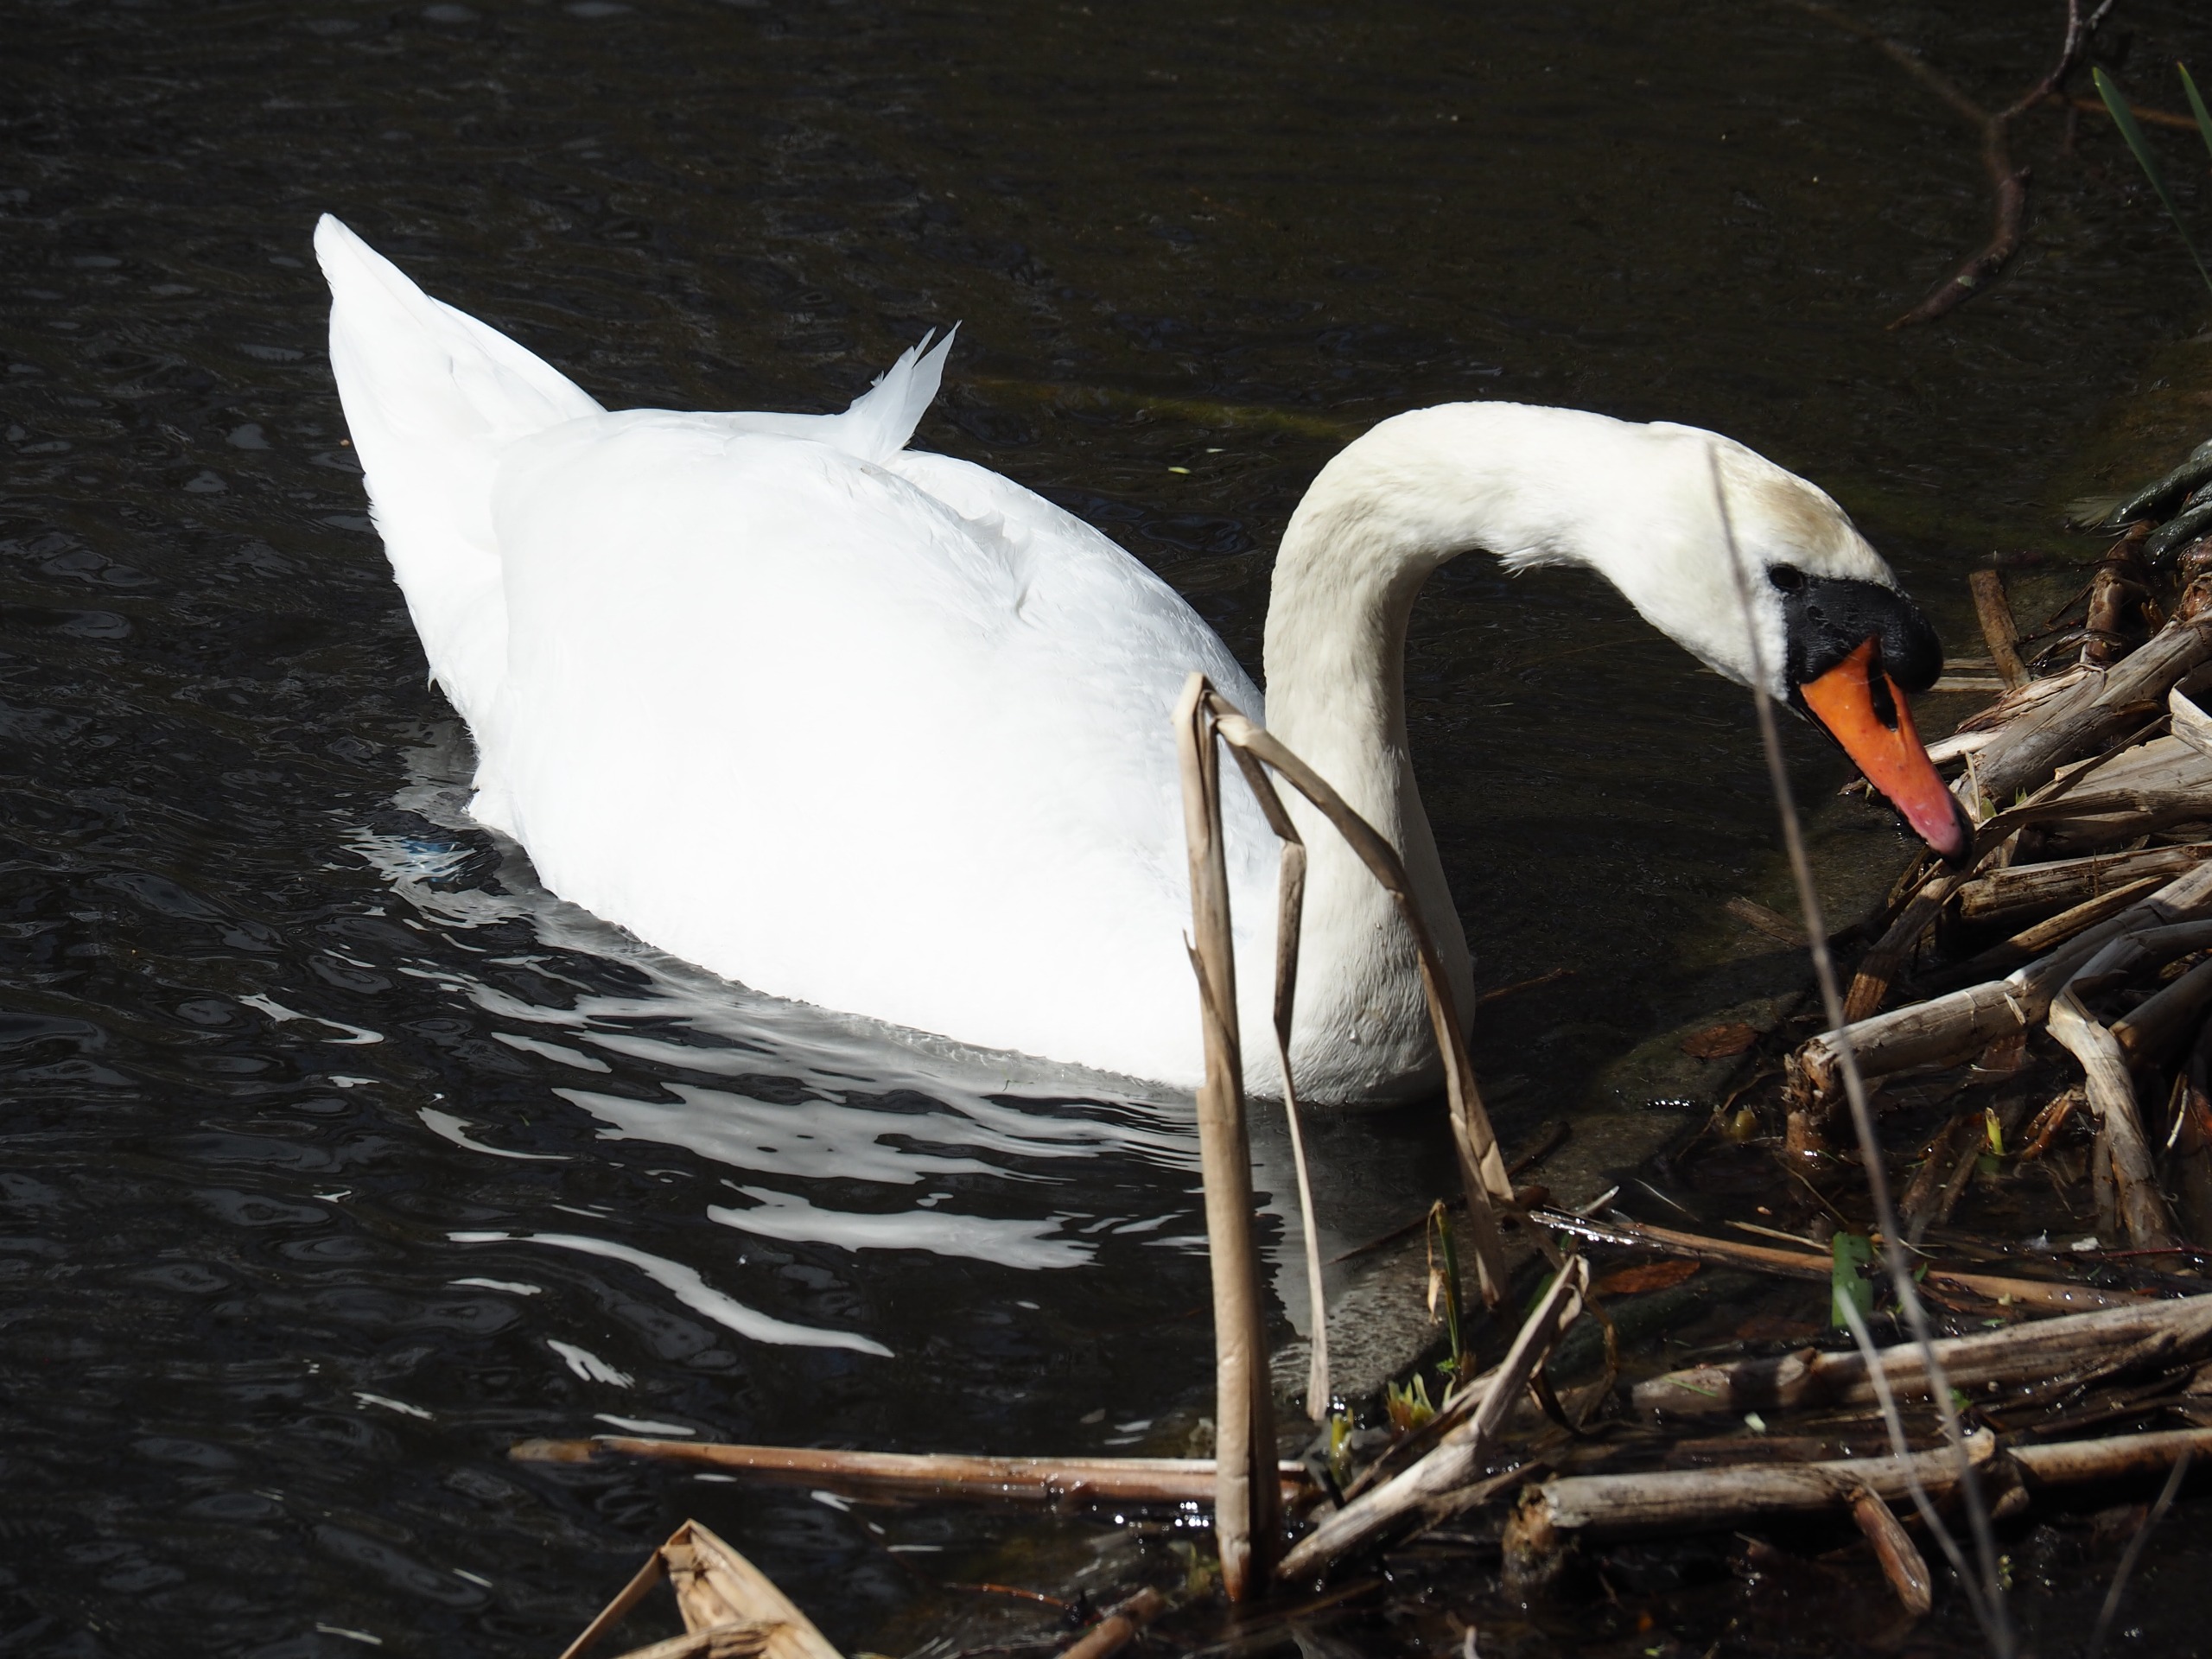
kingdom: Animalia
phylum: Chordata
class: Aves
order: Anseriformes
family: Anatidae
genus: Cygnus
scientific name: Cygnus olor
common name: Knopsvane
